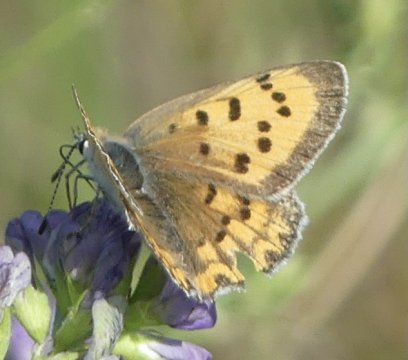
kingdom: Animalia
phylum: Arthropoda
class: Insecta
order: Lepidoptera
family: Sesiidae
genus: Sesia
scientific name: Sesia Lycaena helloides
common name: Purplish Copper
